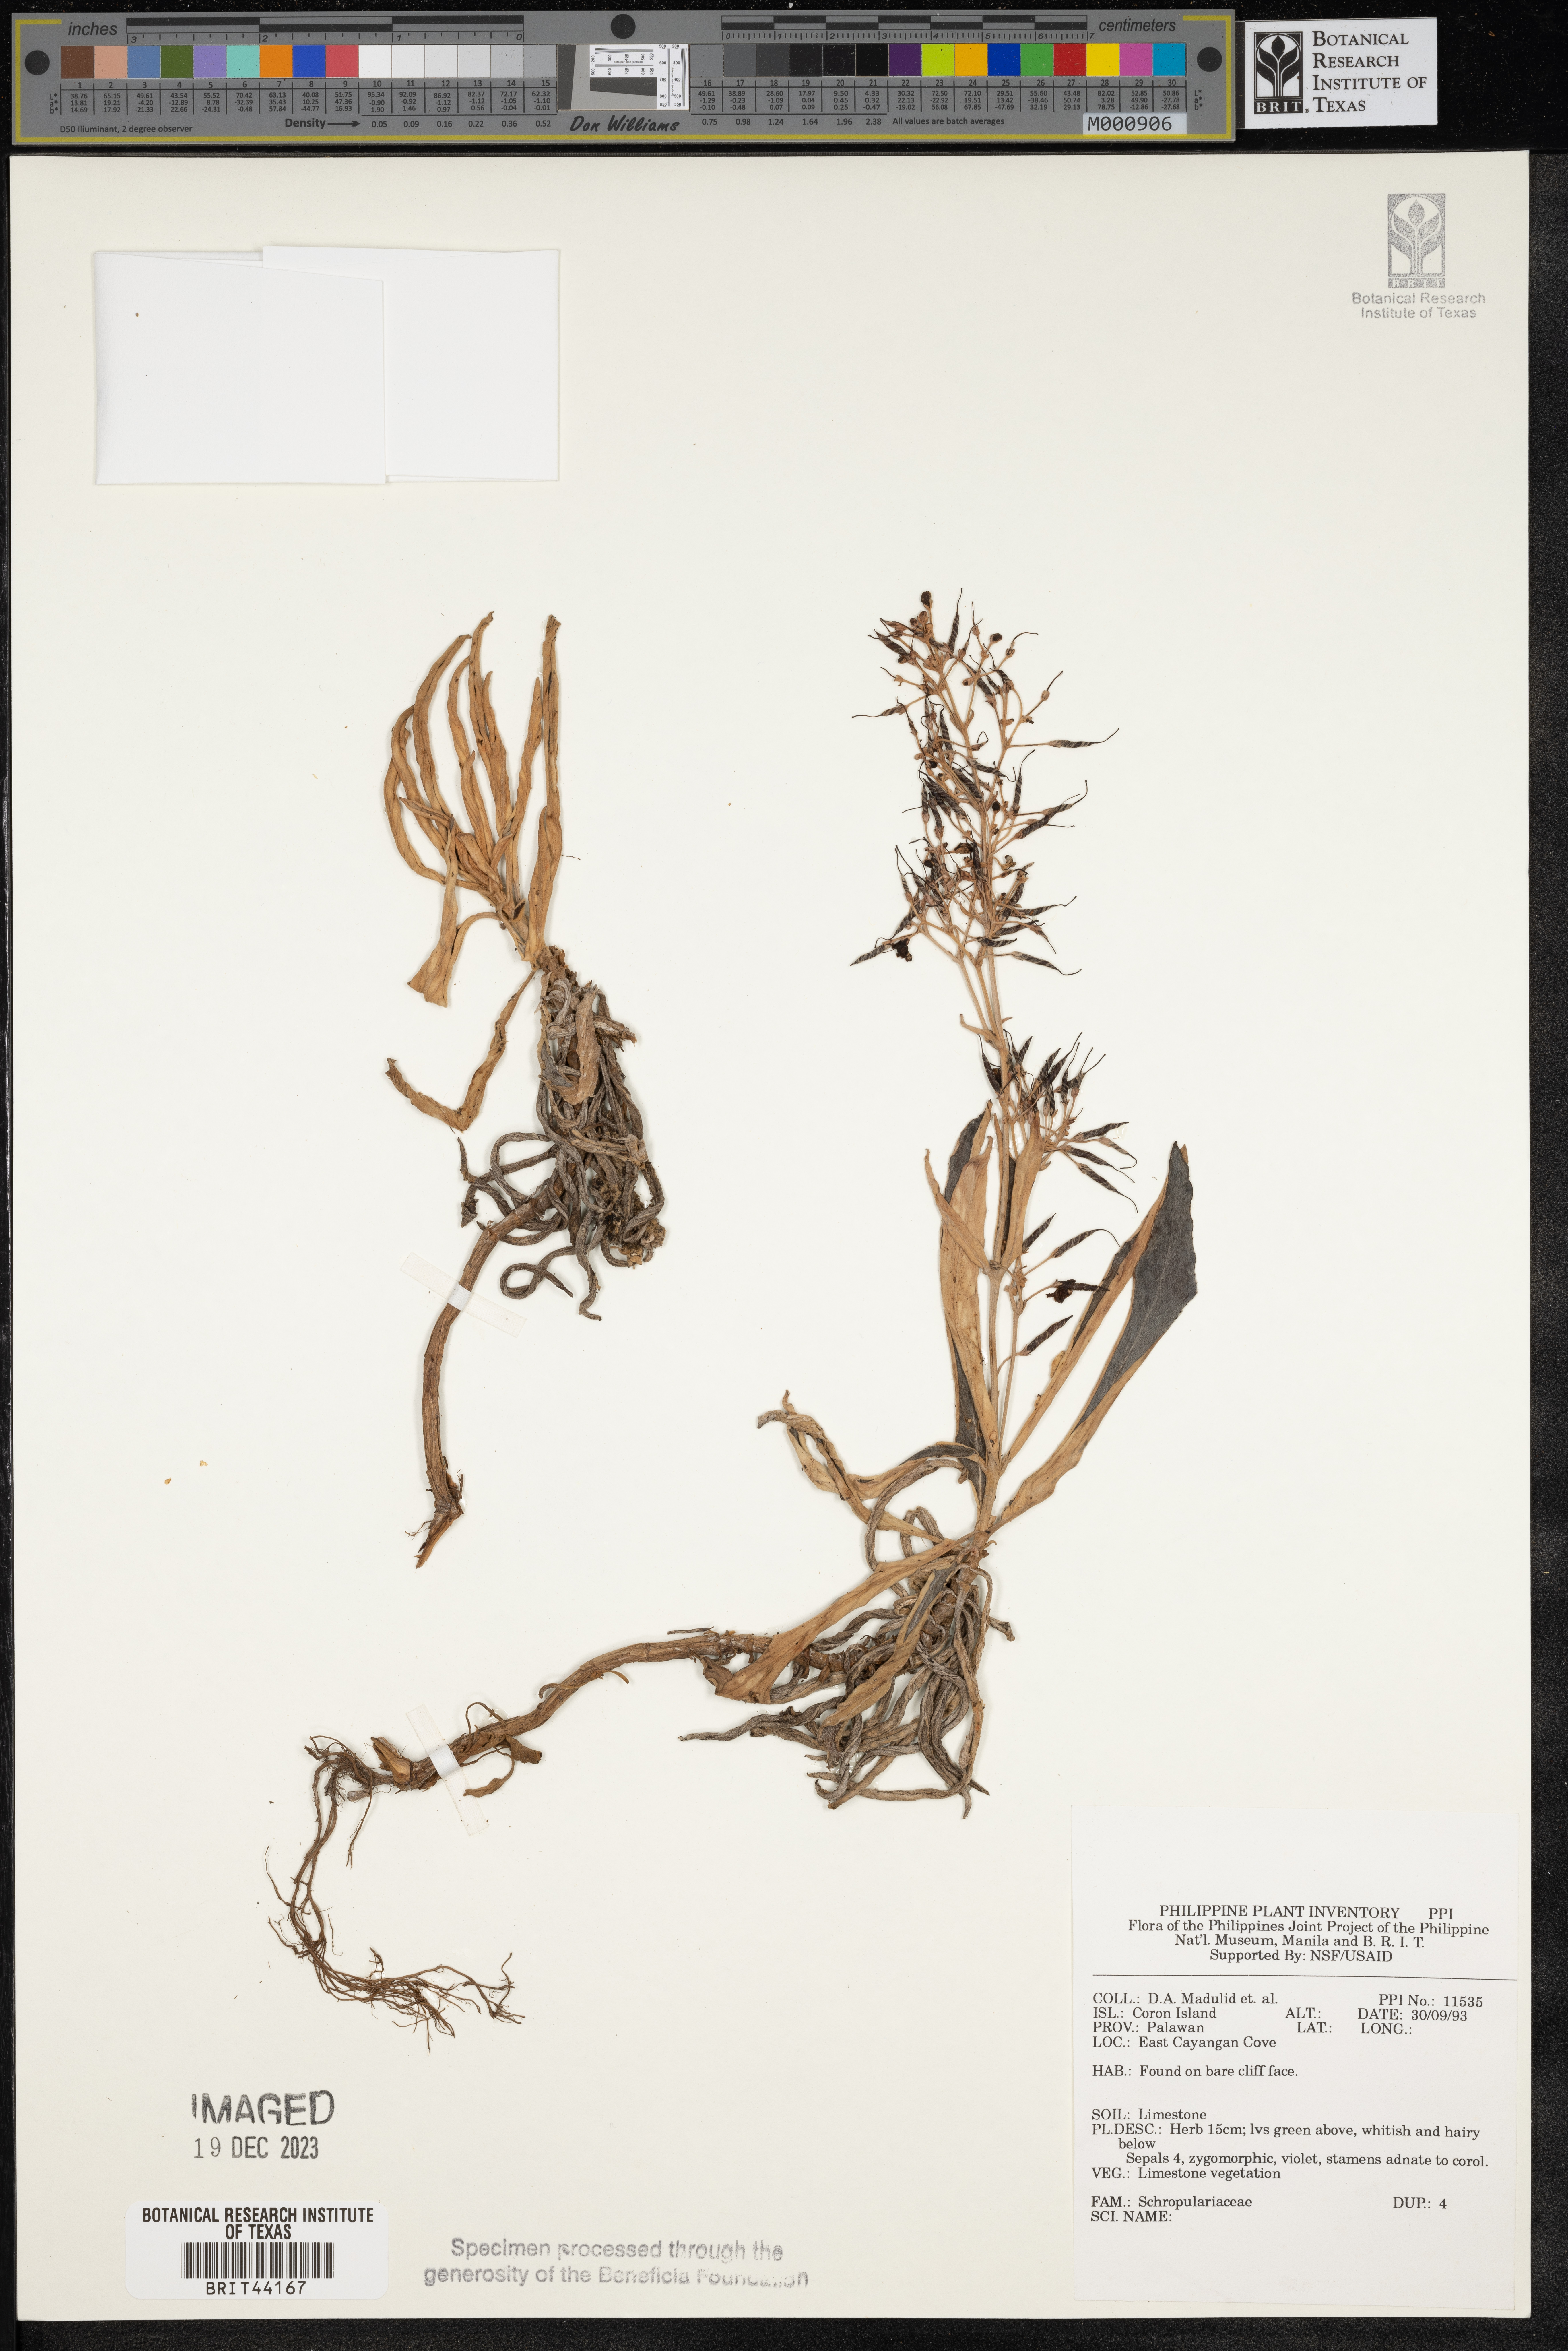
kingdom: Plantae
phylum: Tracheophyta
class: Magnoliopsida
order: Lamiales
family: Scrophulariaceae
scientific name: Scrophulariaceae
